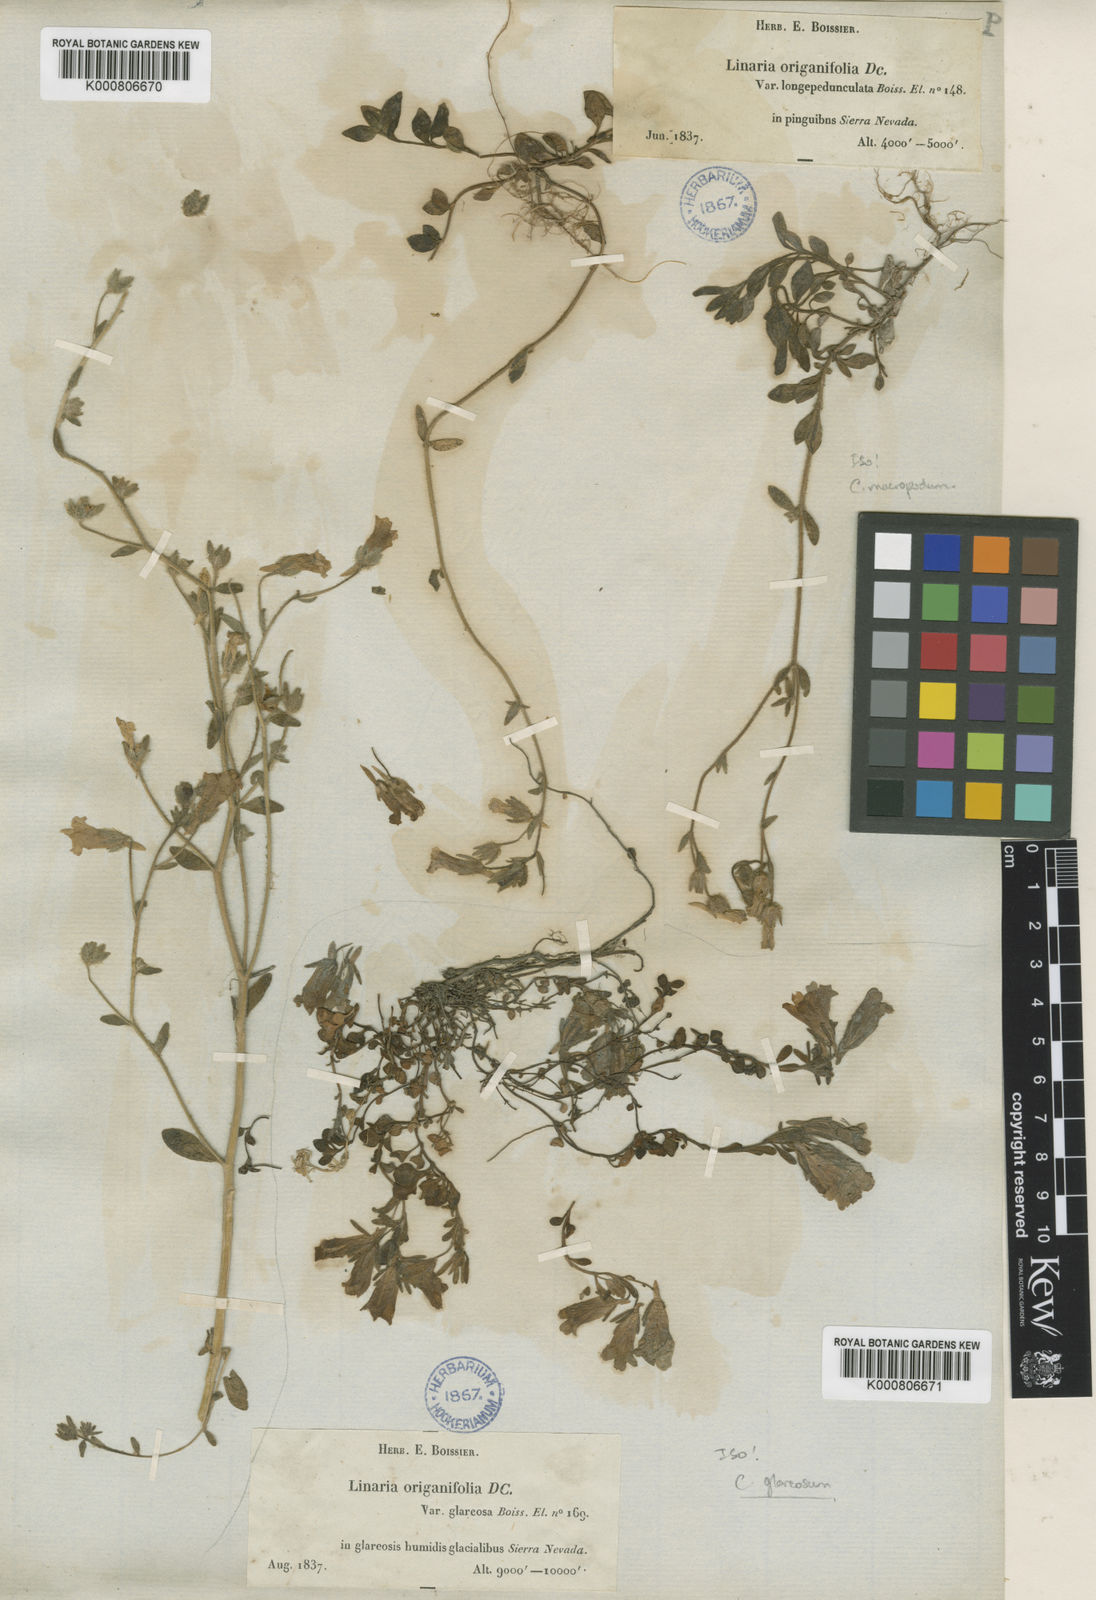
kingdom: Plantae
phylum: Tracheophyta
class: Magnoliopsida
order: Lamiales
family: Plantaginaceae
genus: Chaenorhinum
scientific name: Chaenorhinum
